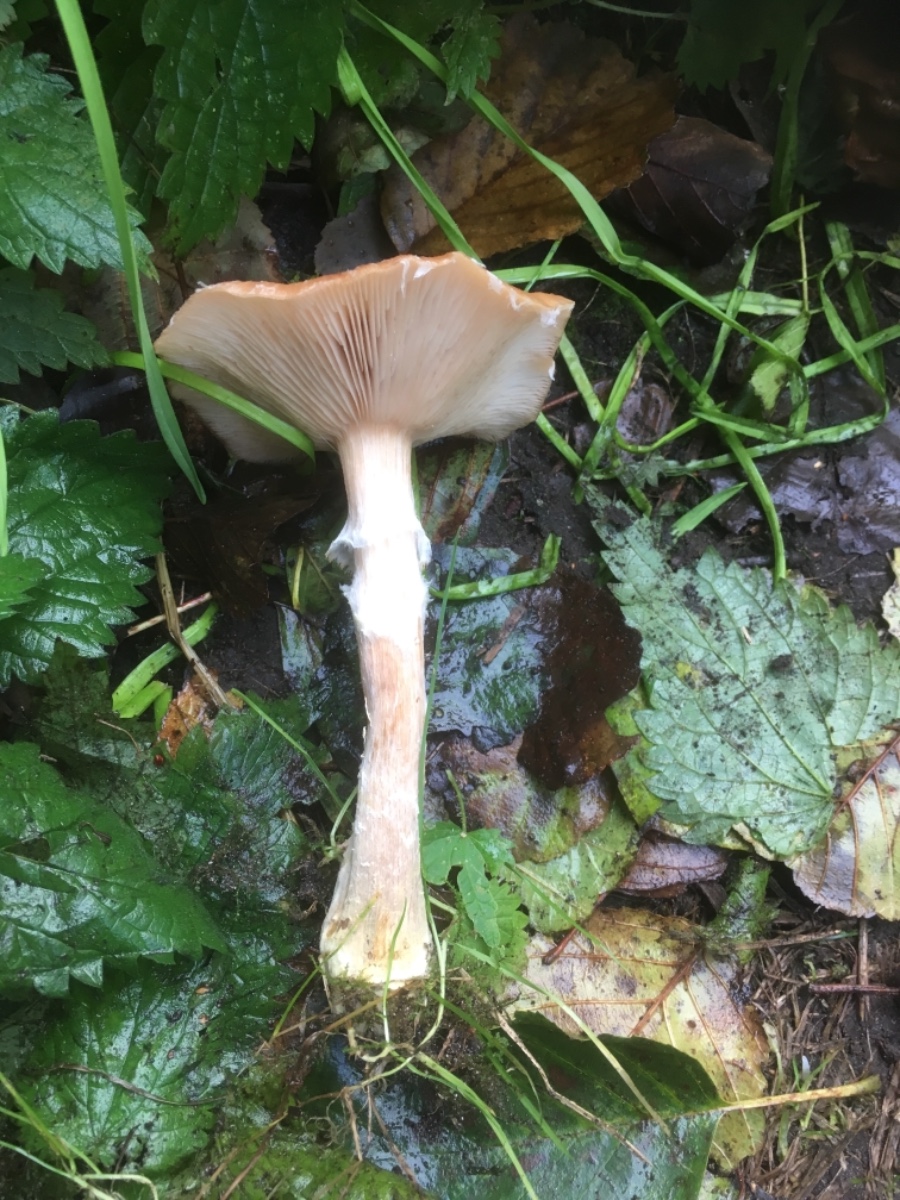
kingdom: Fungi
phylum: Basidiomycota
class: Agaricomycetes
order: Agaricales
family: Physalacriaceae
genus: Armillaria
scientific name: Armillaria lutea
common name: køllestokket honningsvamp
